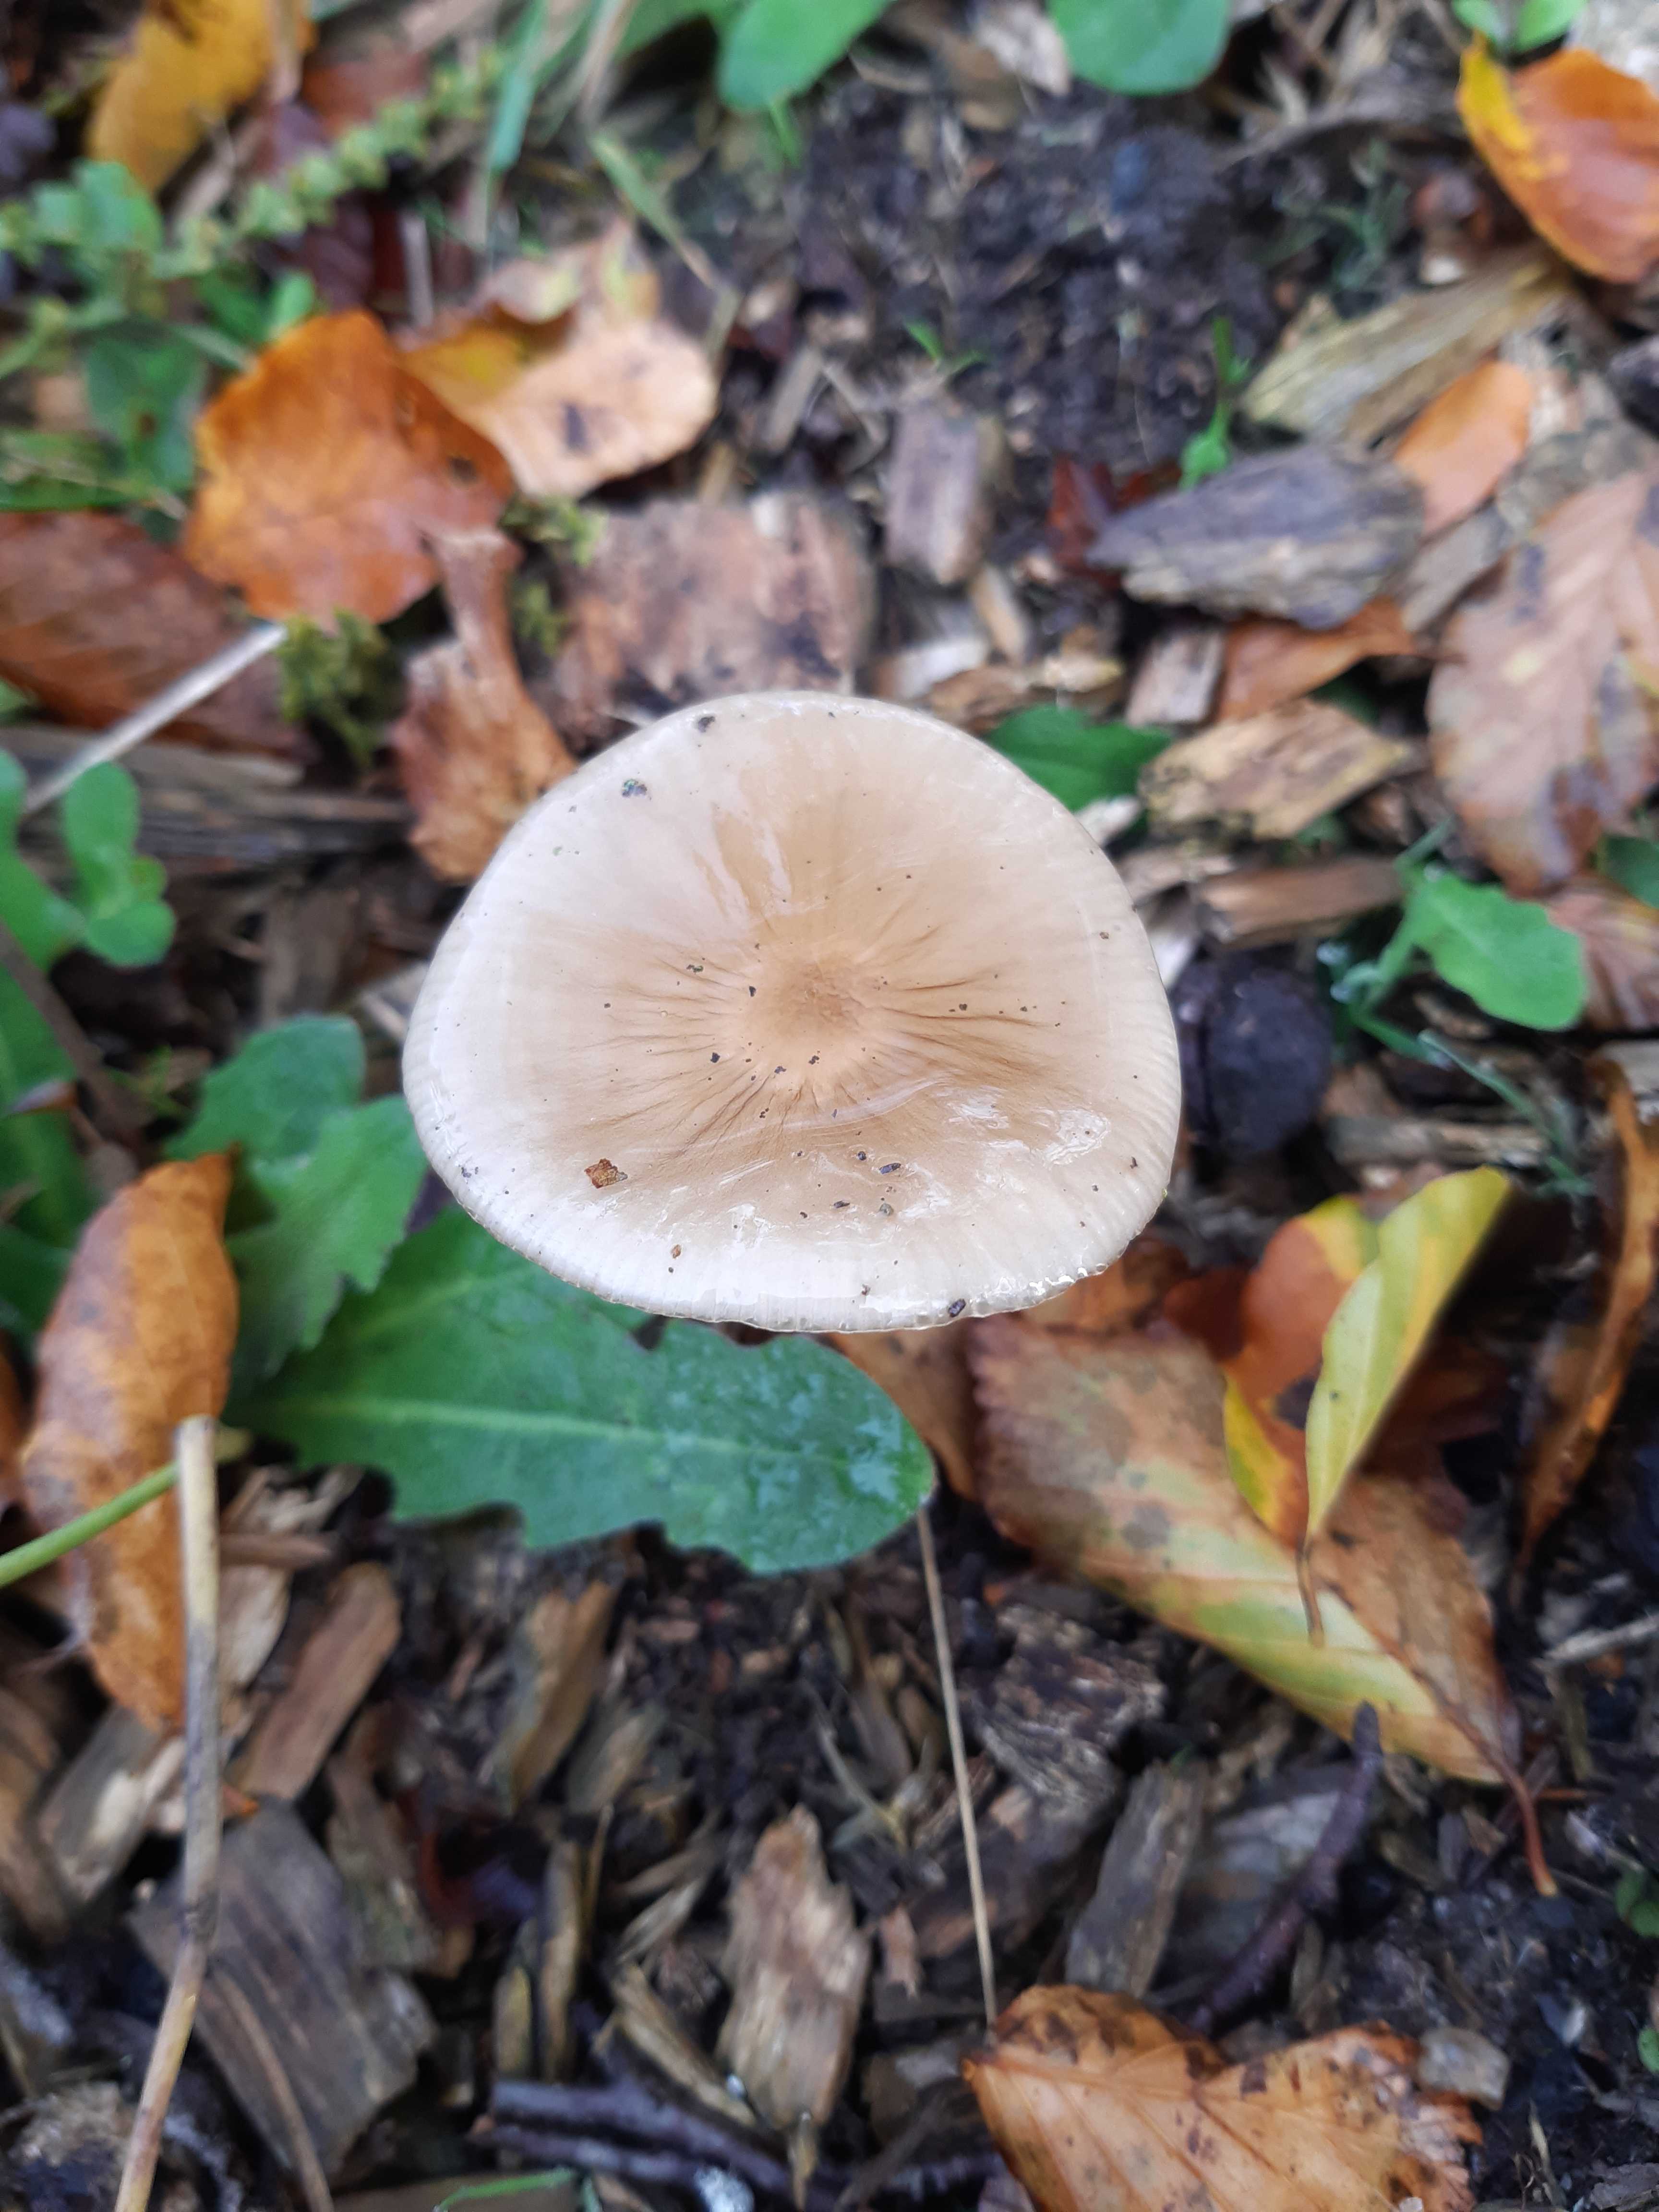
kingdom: Fungi
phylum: Basidiomycota
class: Agaricomycetes
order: Agaricales
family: Physalacriaceae
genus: Hymenopellis
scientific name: Hymenopellis radicata
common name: almindelig pælerodshat
